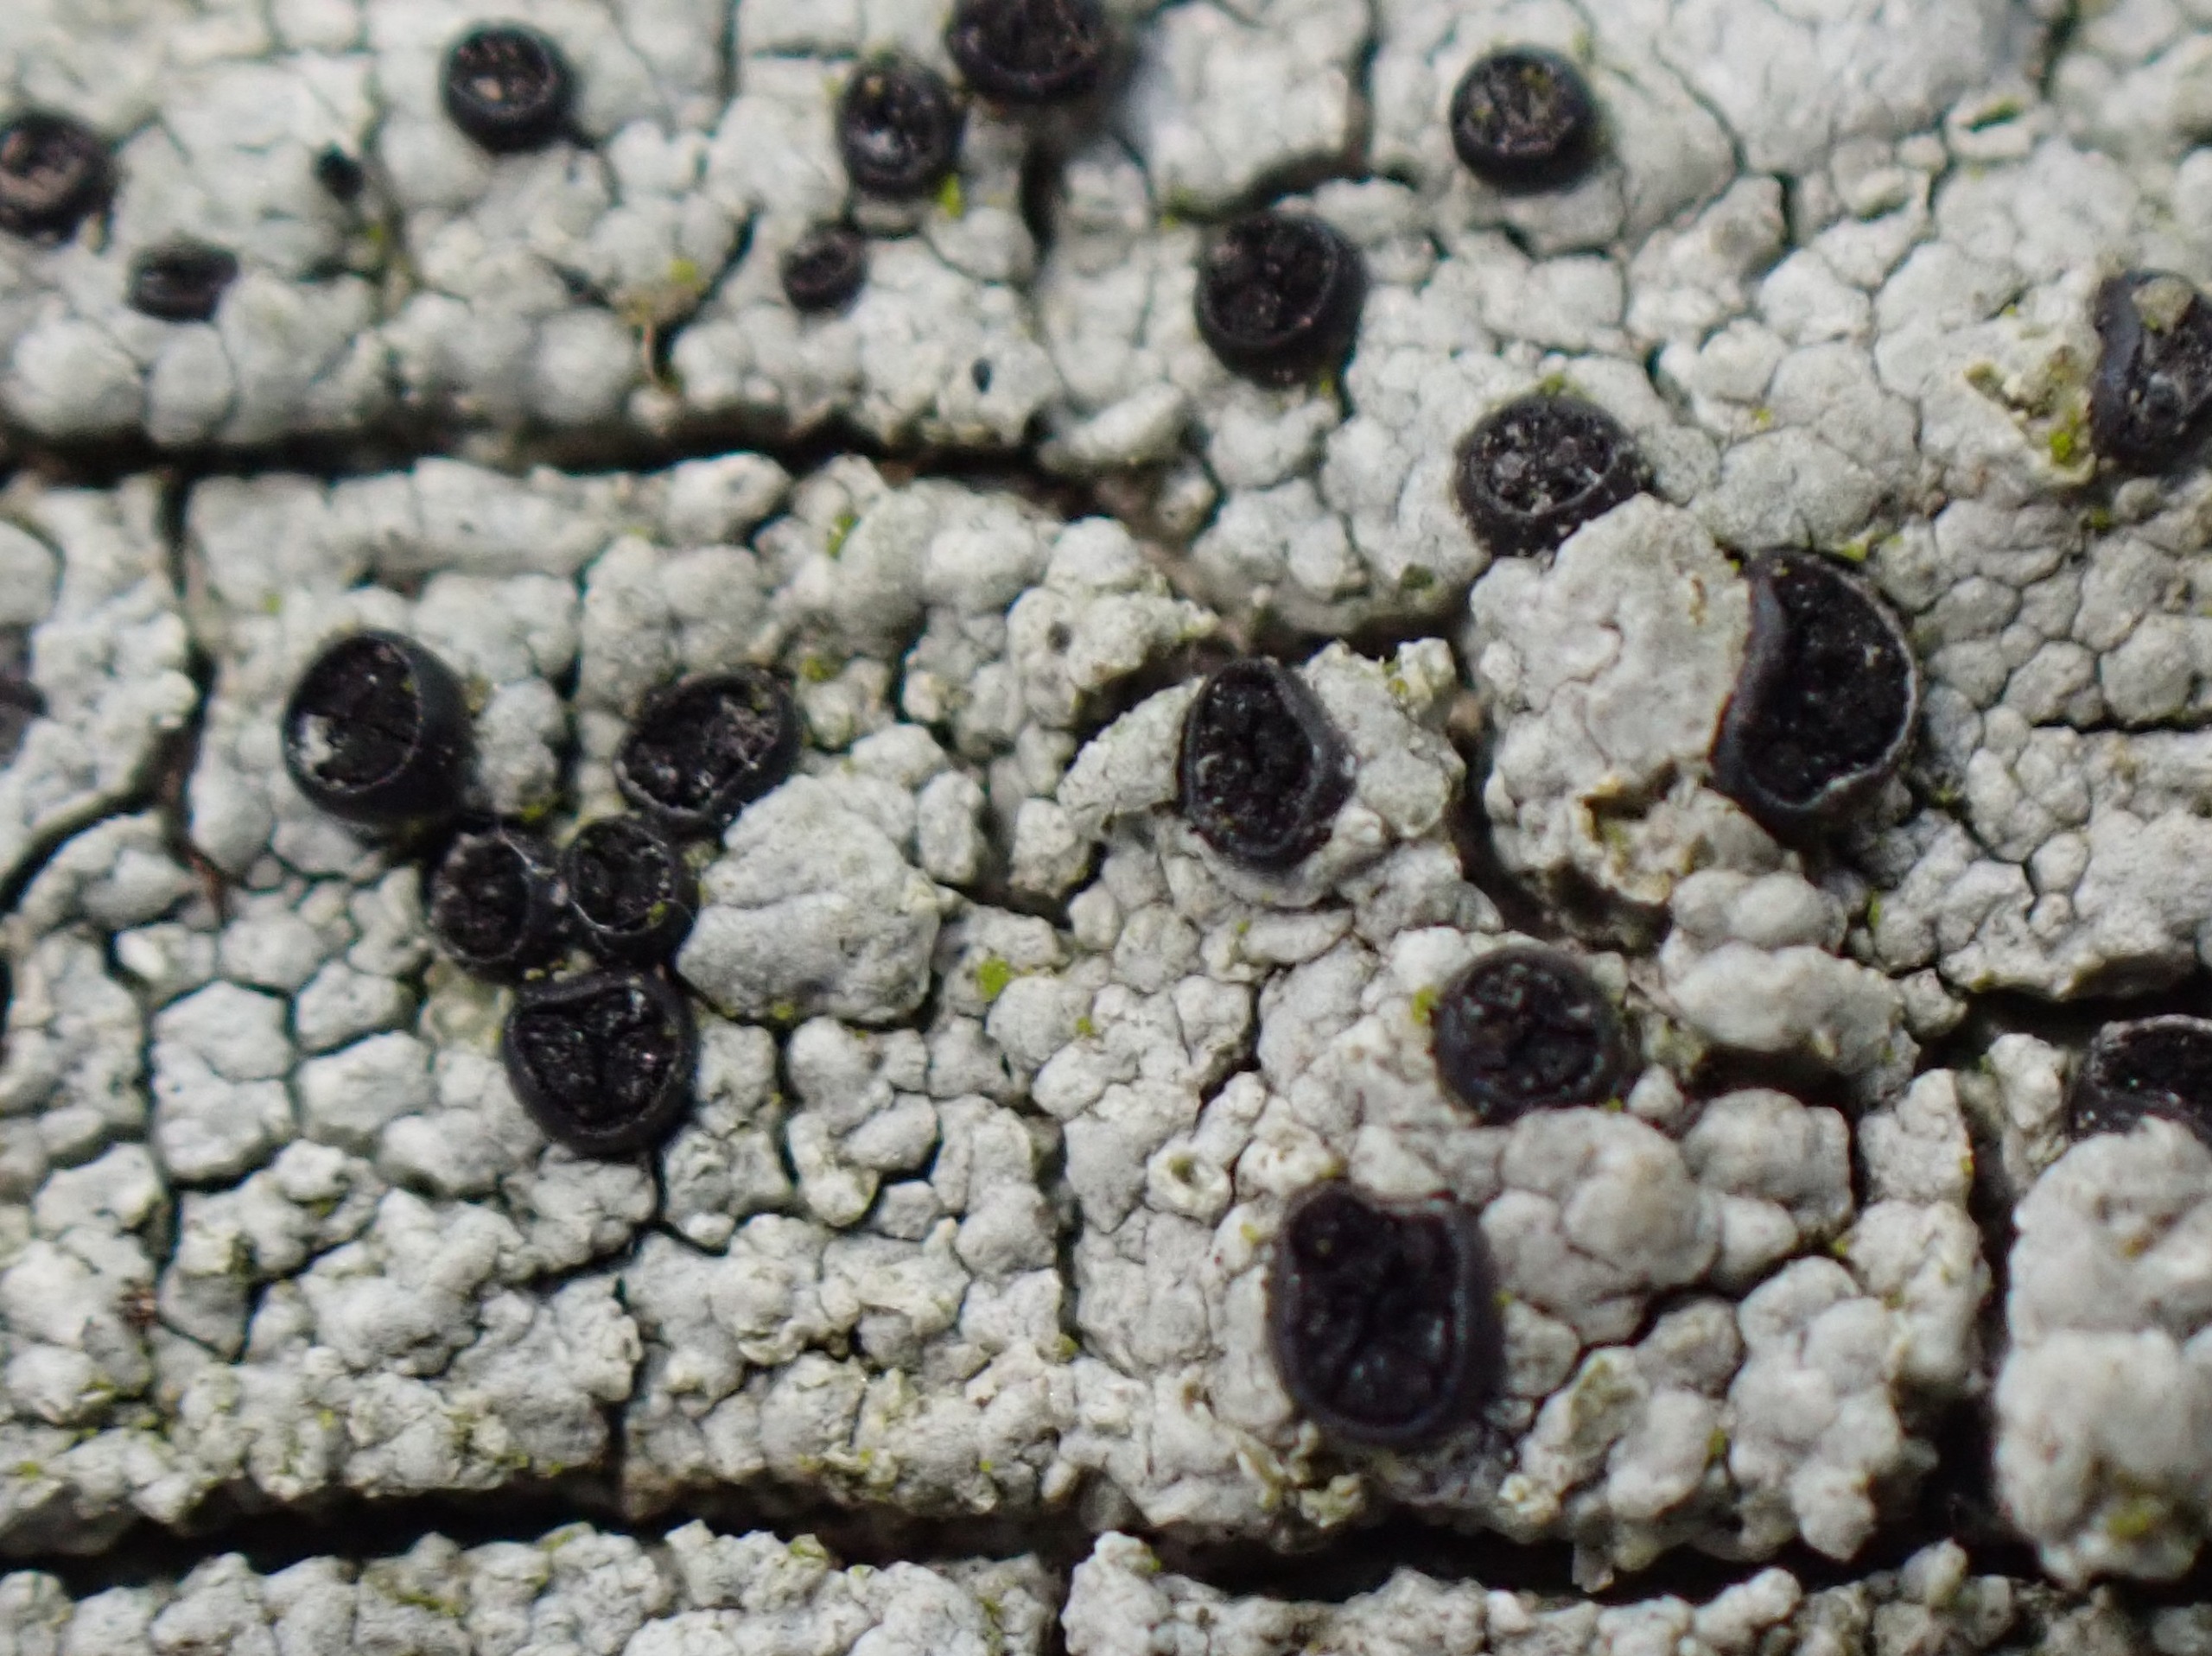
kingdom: Fungi
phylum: Ascomycota
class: Lecanoromycetes
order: Caliciales
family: Caliciaceae
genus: Acolium
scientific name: Acolium inquinans
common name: Siddende sodlav
